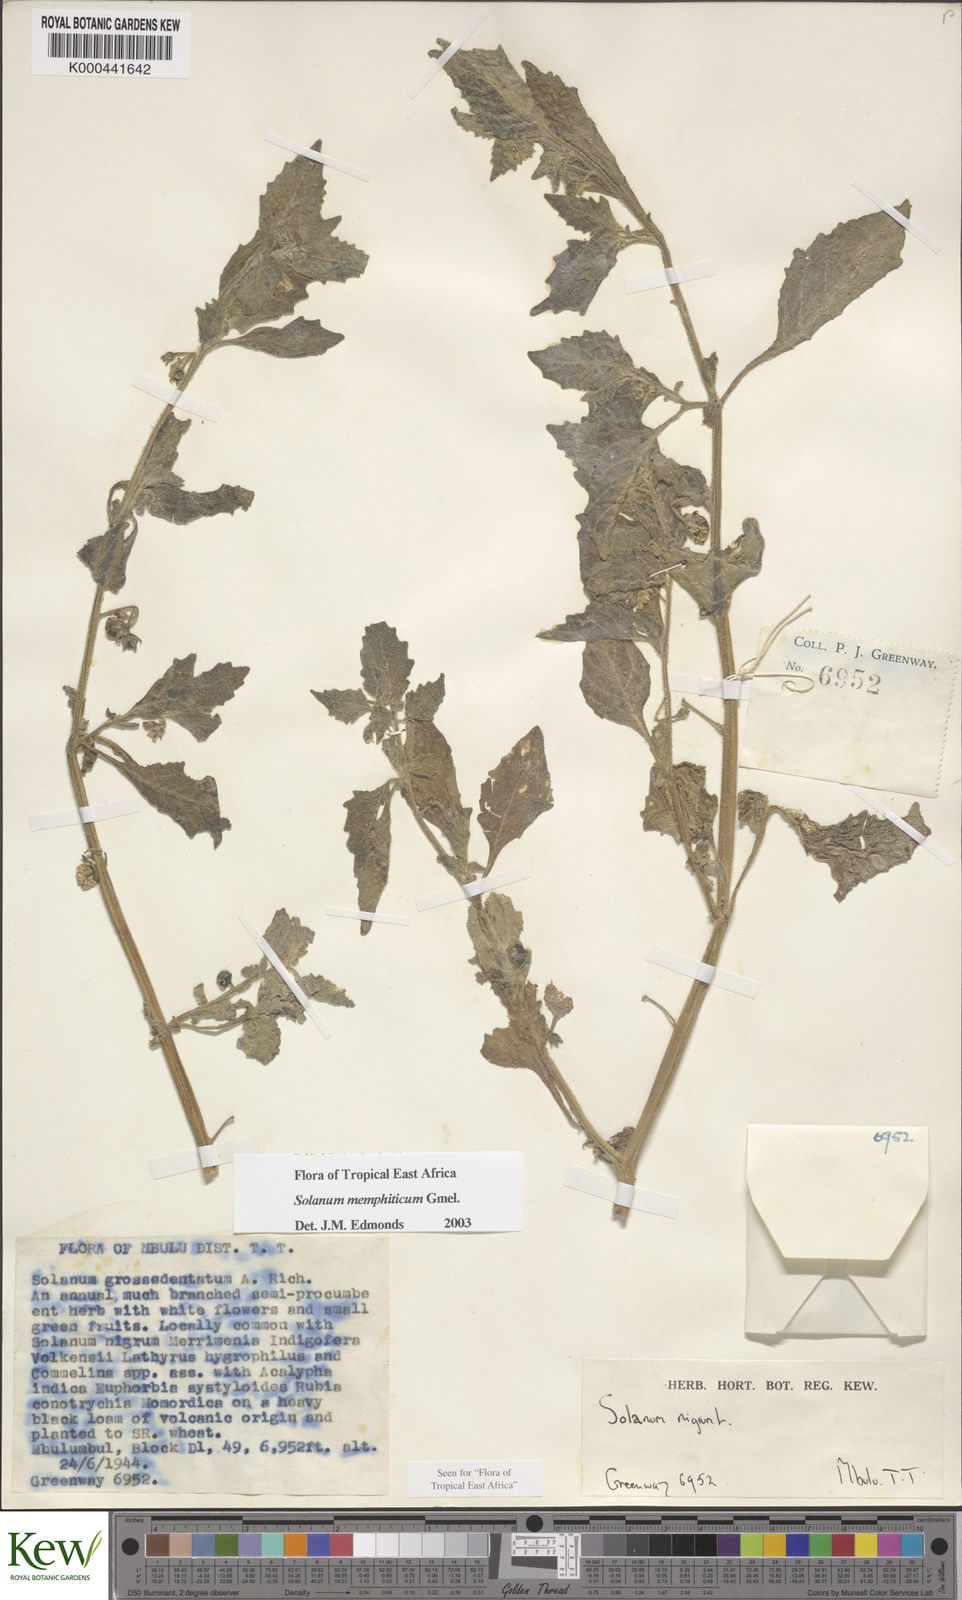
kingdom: Plantae
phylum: Tracheophyta
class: Magnoliopsida
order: Solanales
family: Solanaceae
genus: Solanum
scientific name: Solanum memphiticum
